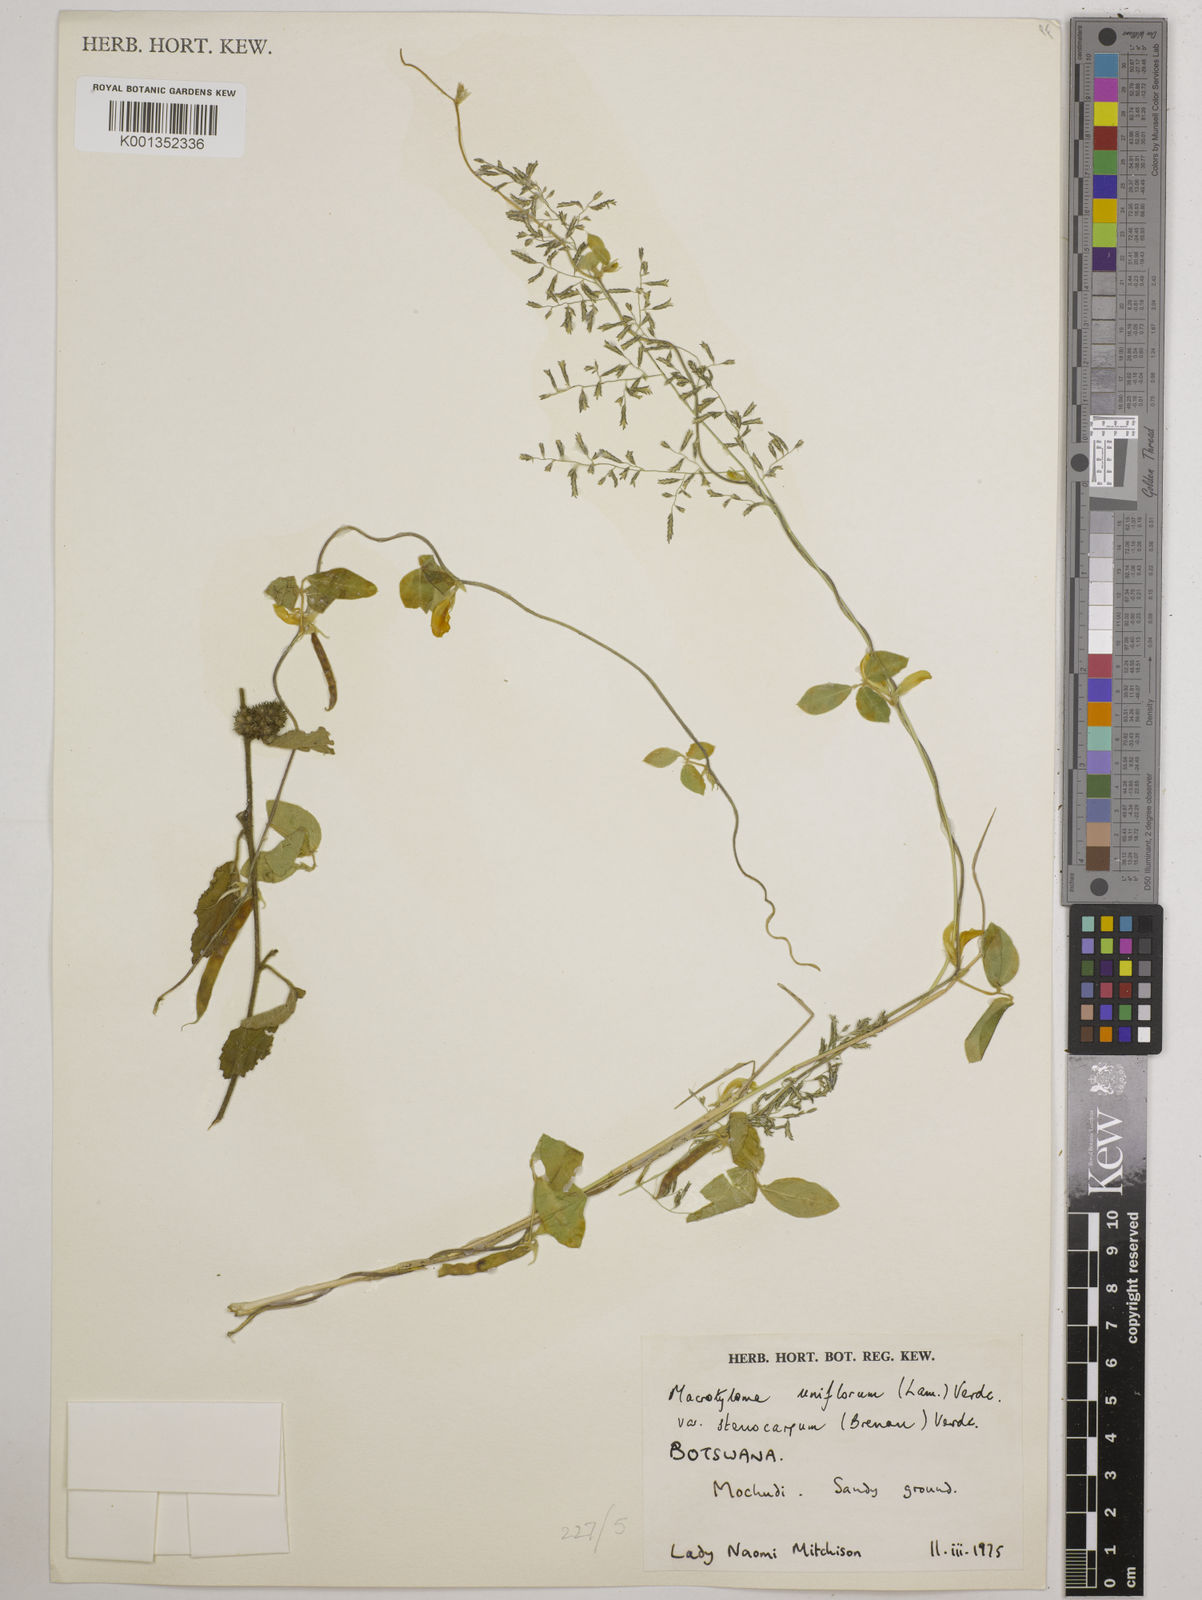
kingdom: Plantae
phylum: Tracheophyta
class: Magnoliopsida
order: Fabales
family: Fabaceae
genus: Macrotyloma
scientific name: Macrotyloma
